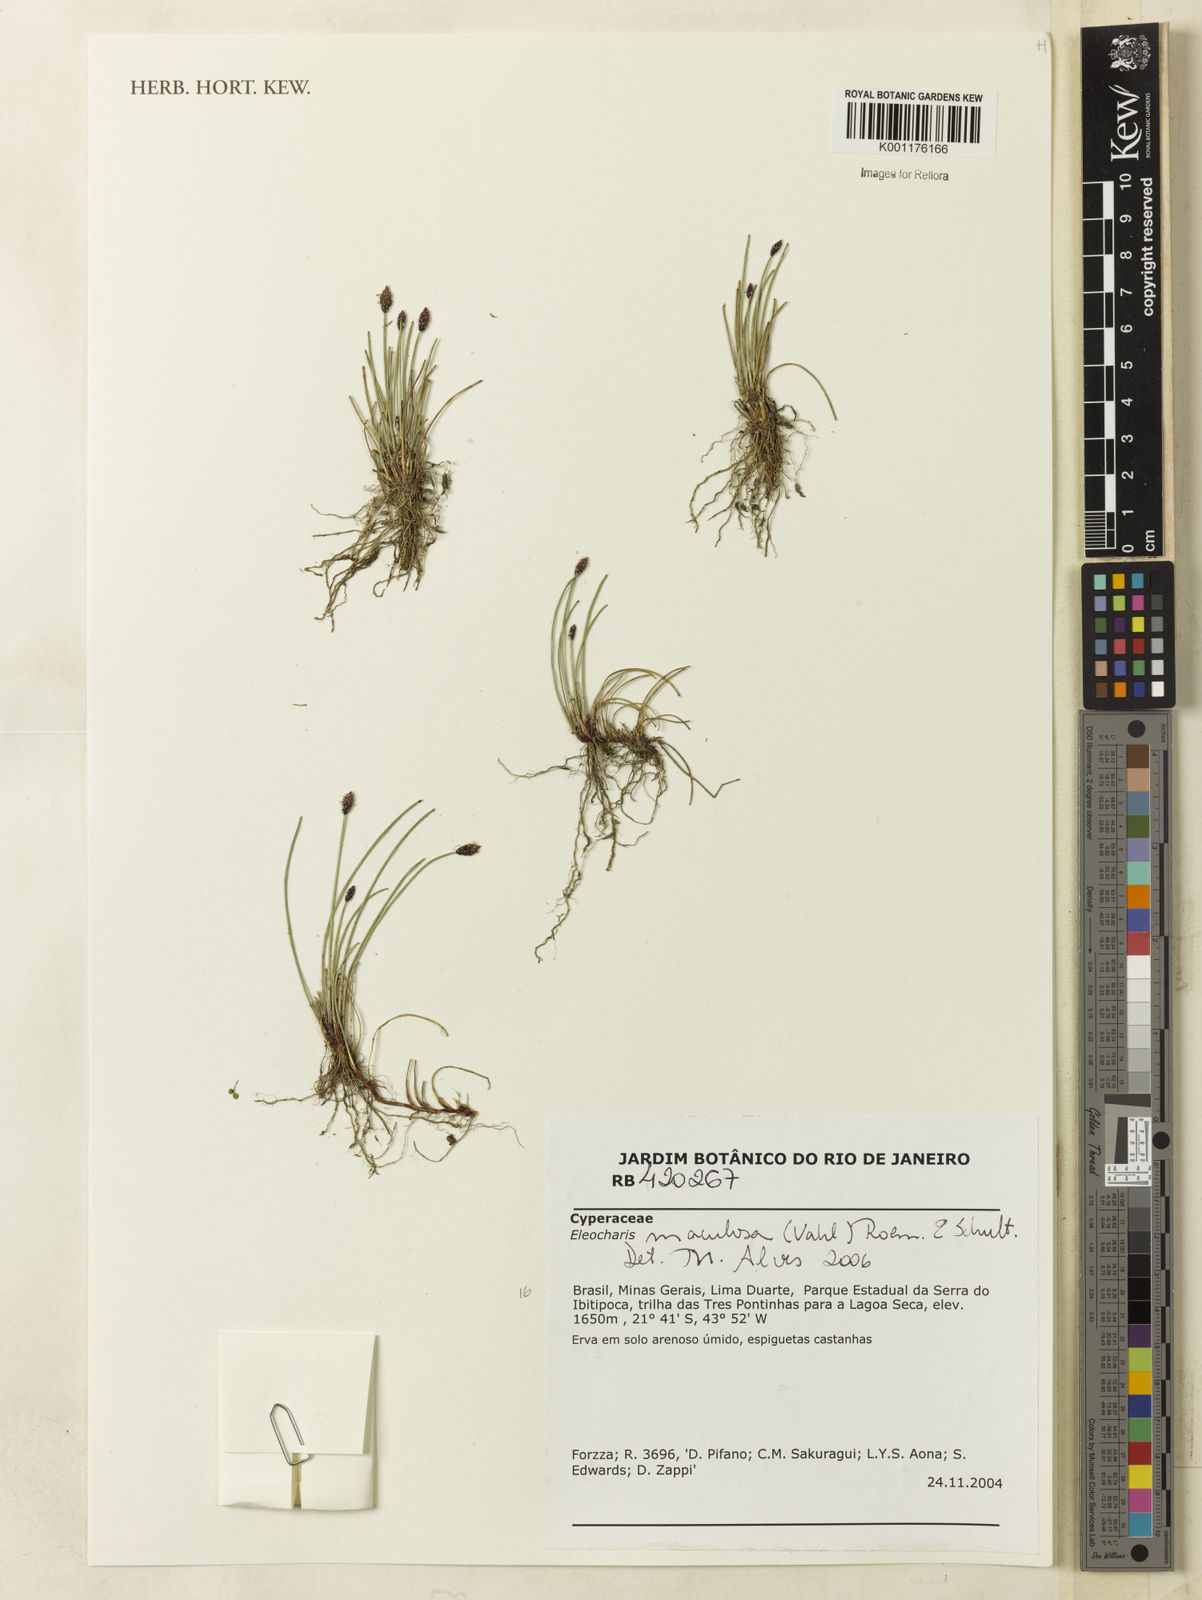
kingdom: Plantae
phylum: Tracheophyta
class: Liliopsida
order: Poales
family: Cyperaceae
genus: Eleocharis
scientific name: Eleocharis maculosa
